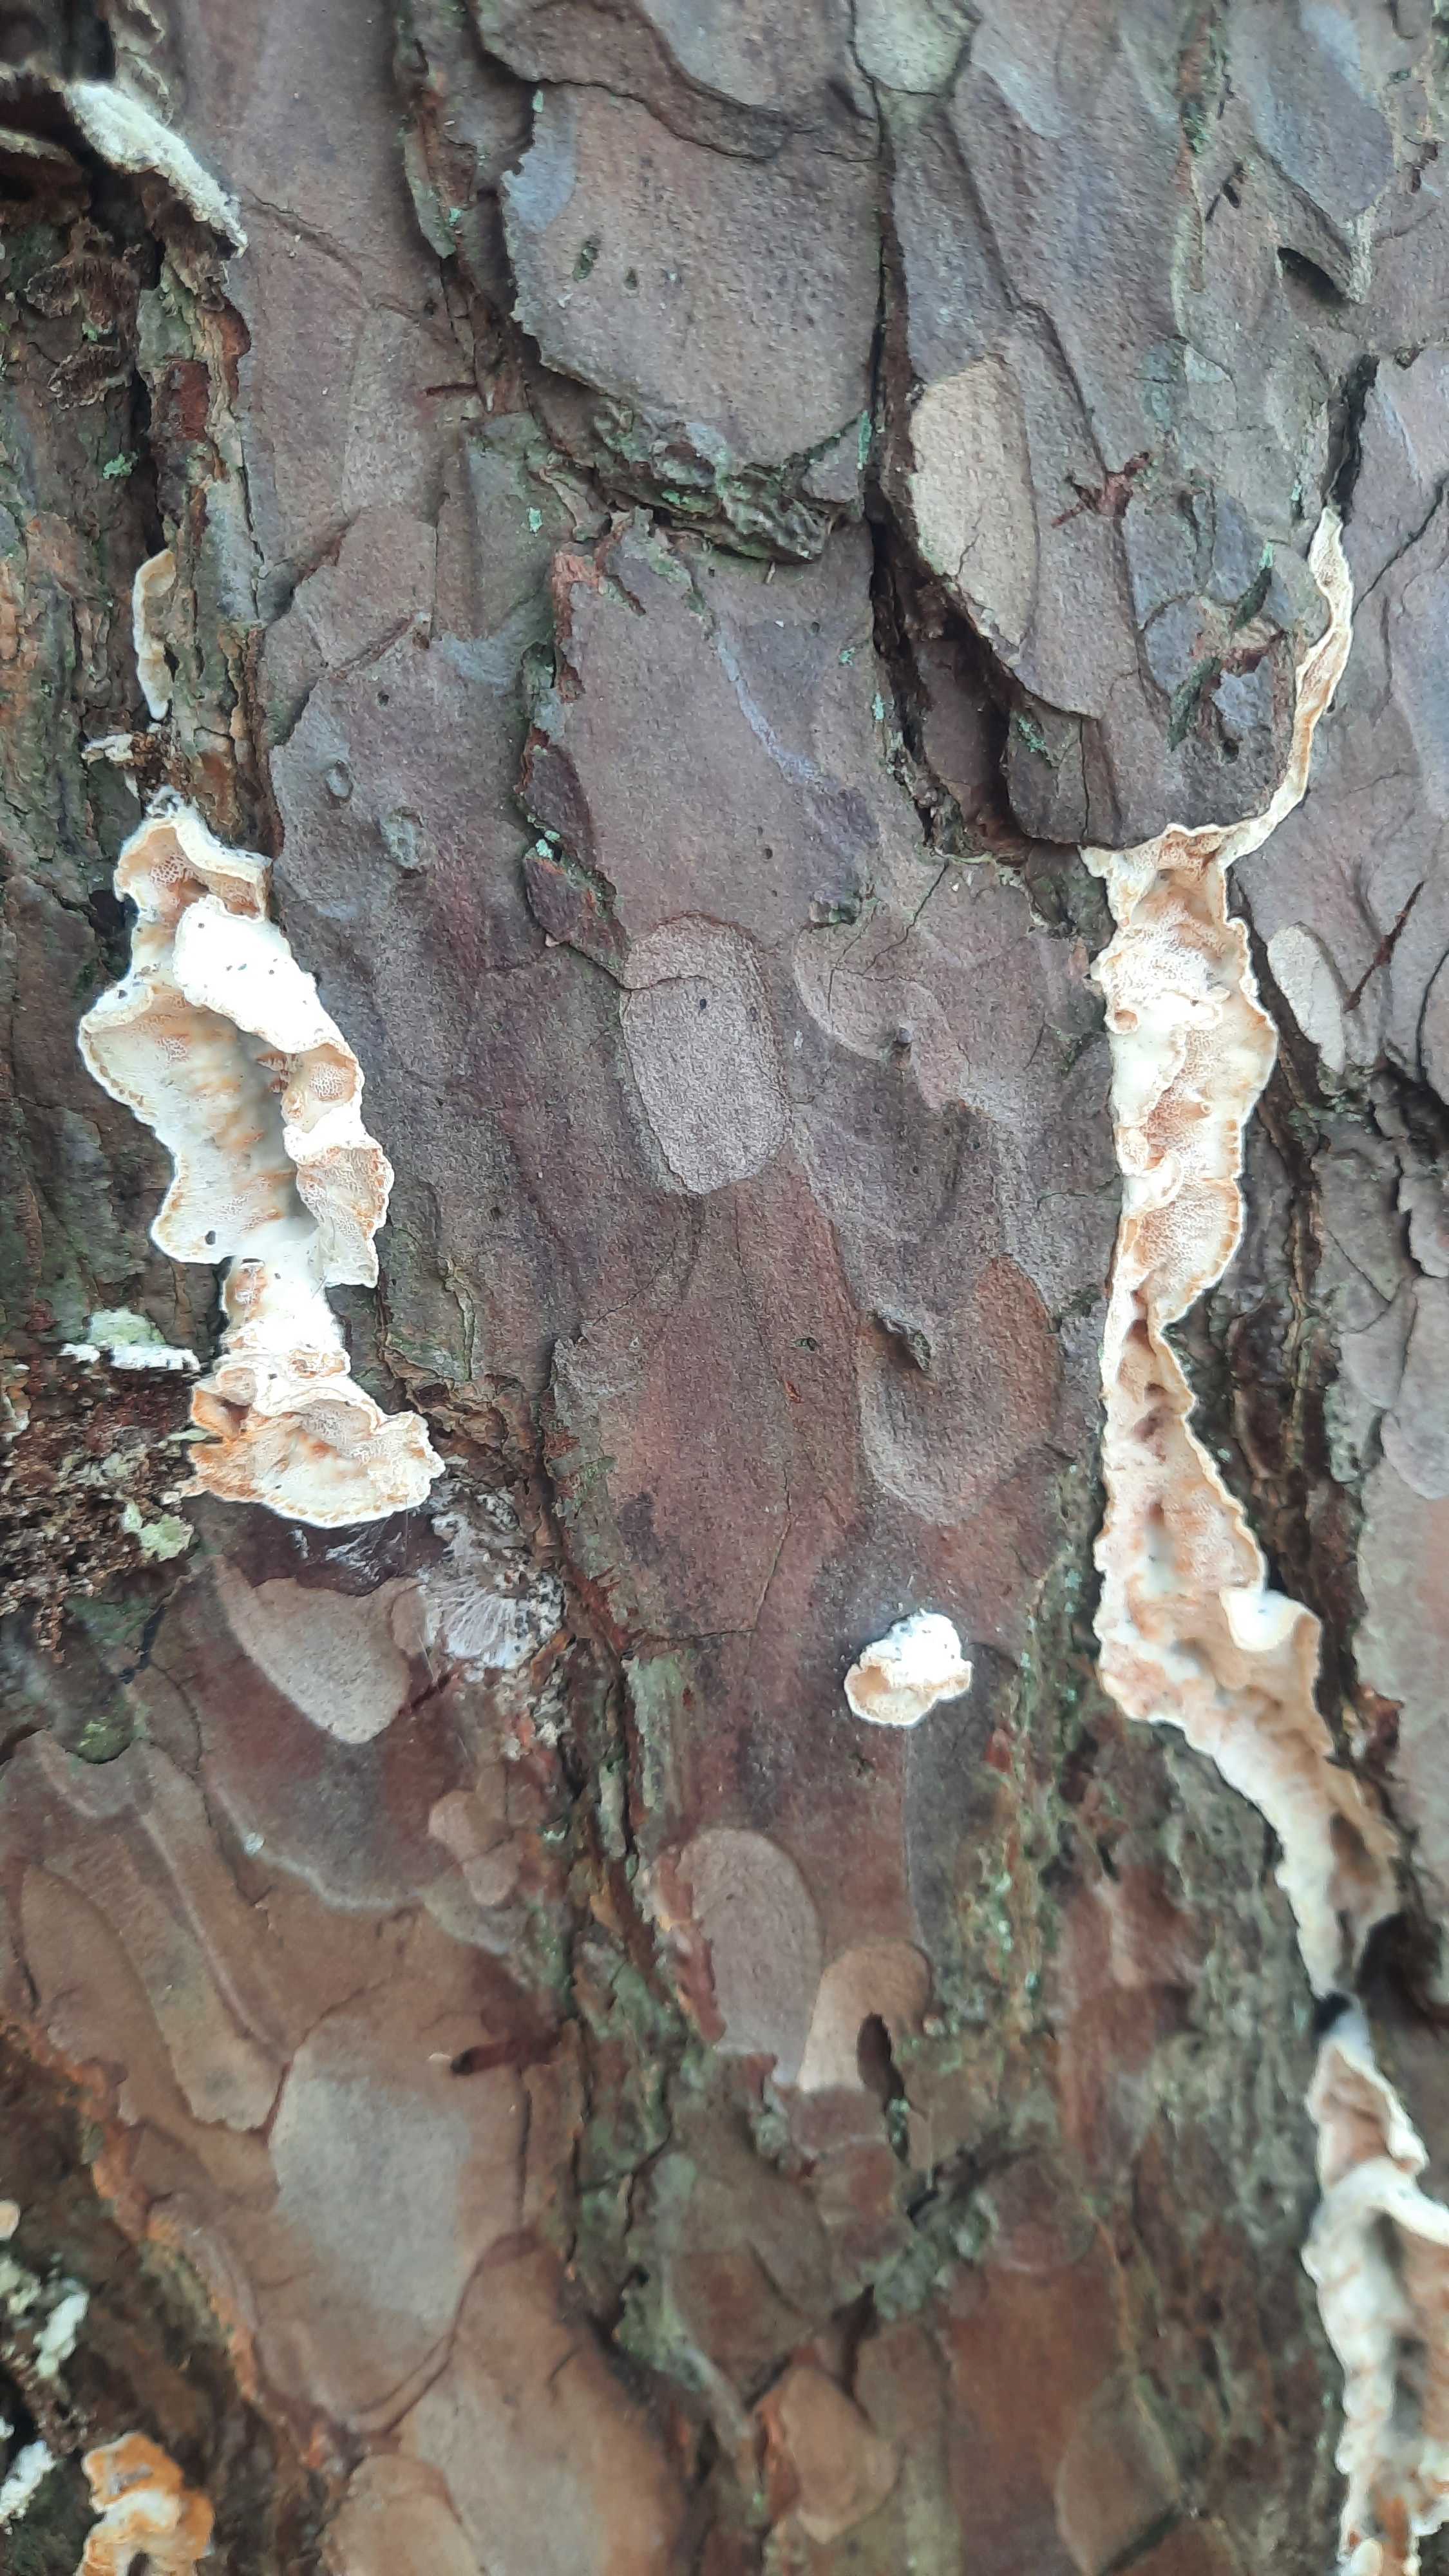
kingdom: Fungi
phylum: Basidiomycota
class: Agaricomycetes
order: Polyporales
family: Incrustoporiaceae
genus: Skeletocutis
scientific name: Skeletocutis amorpha
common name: orange krystalporesvamp
